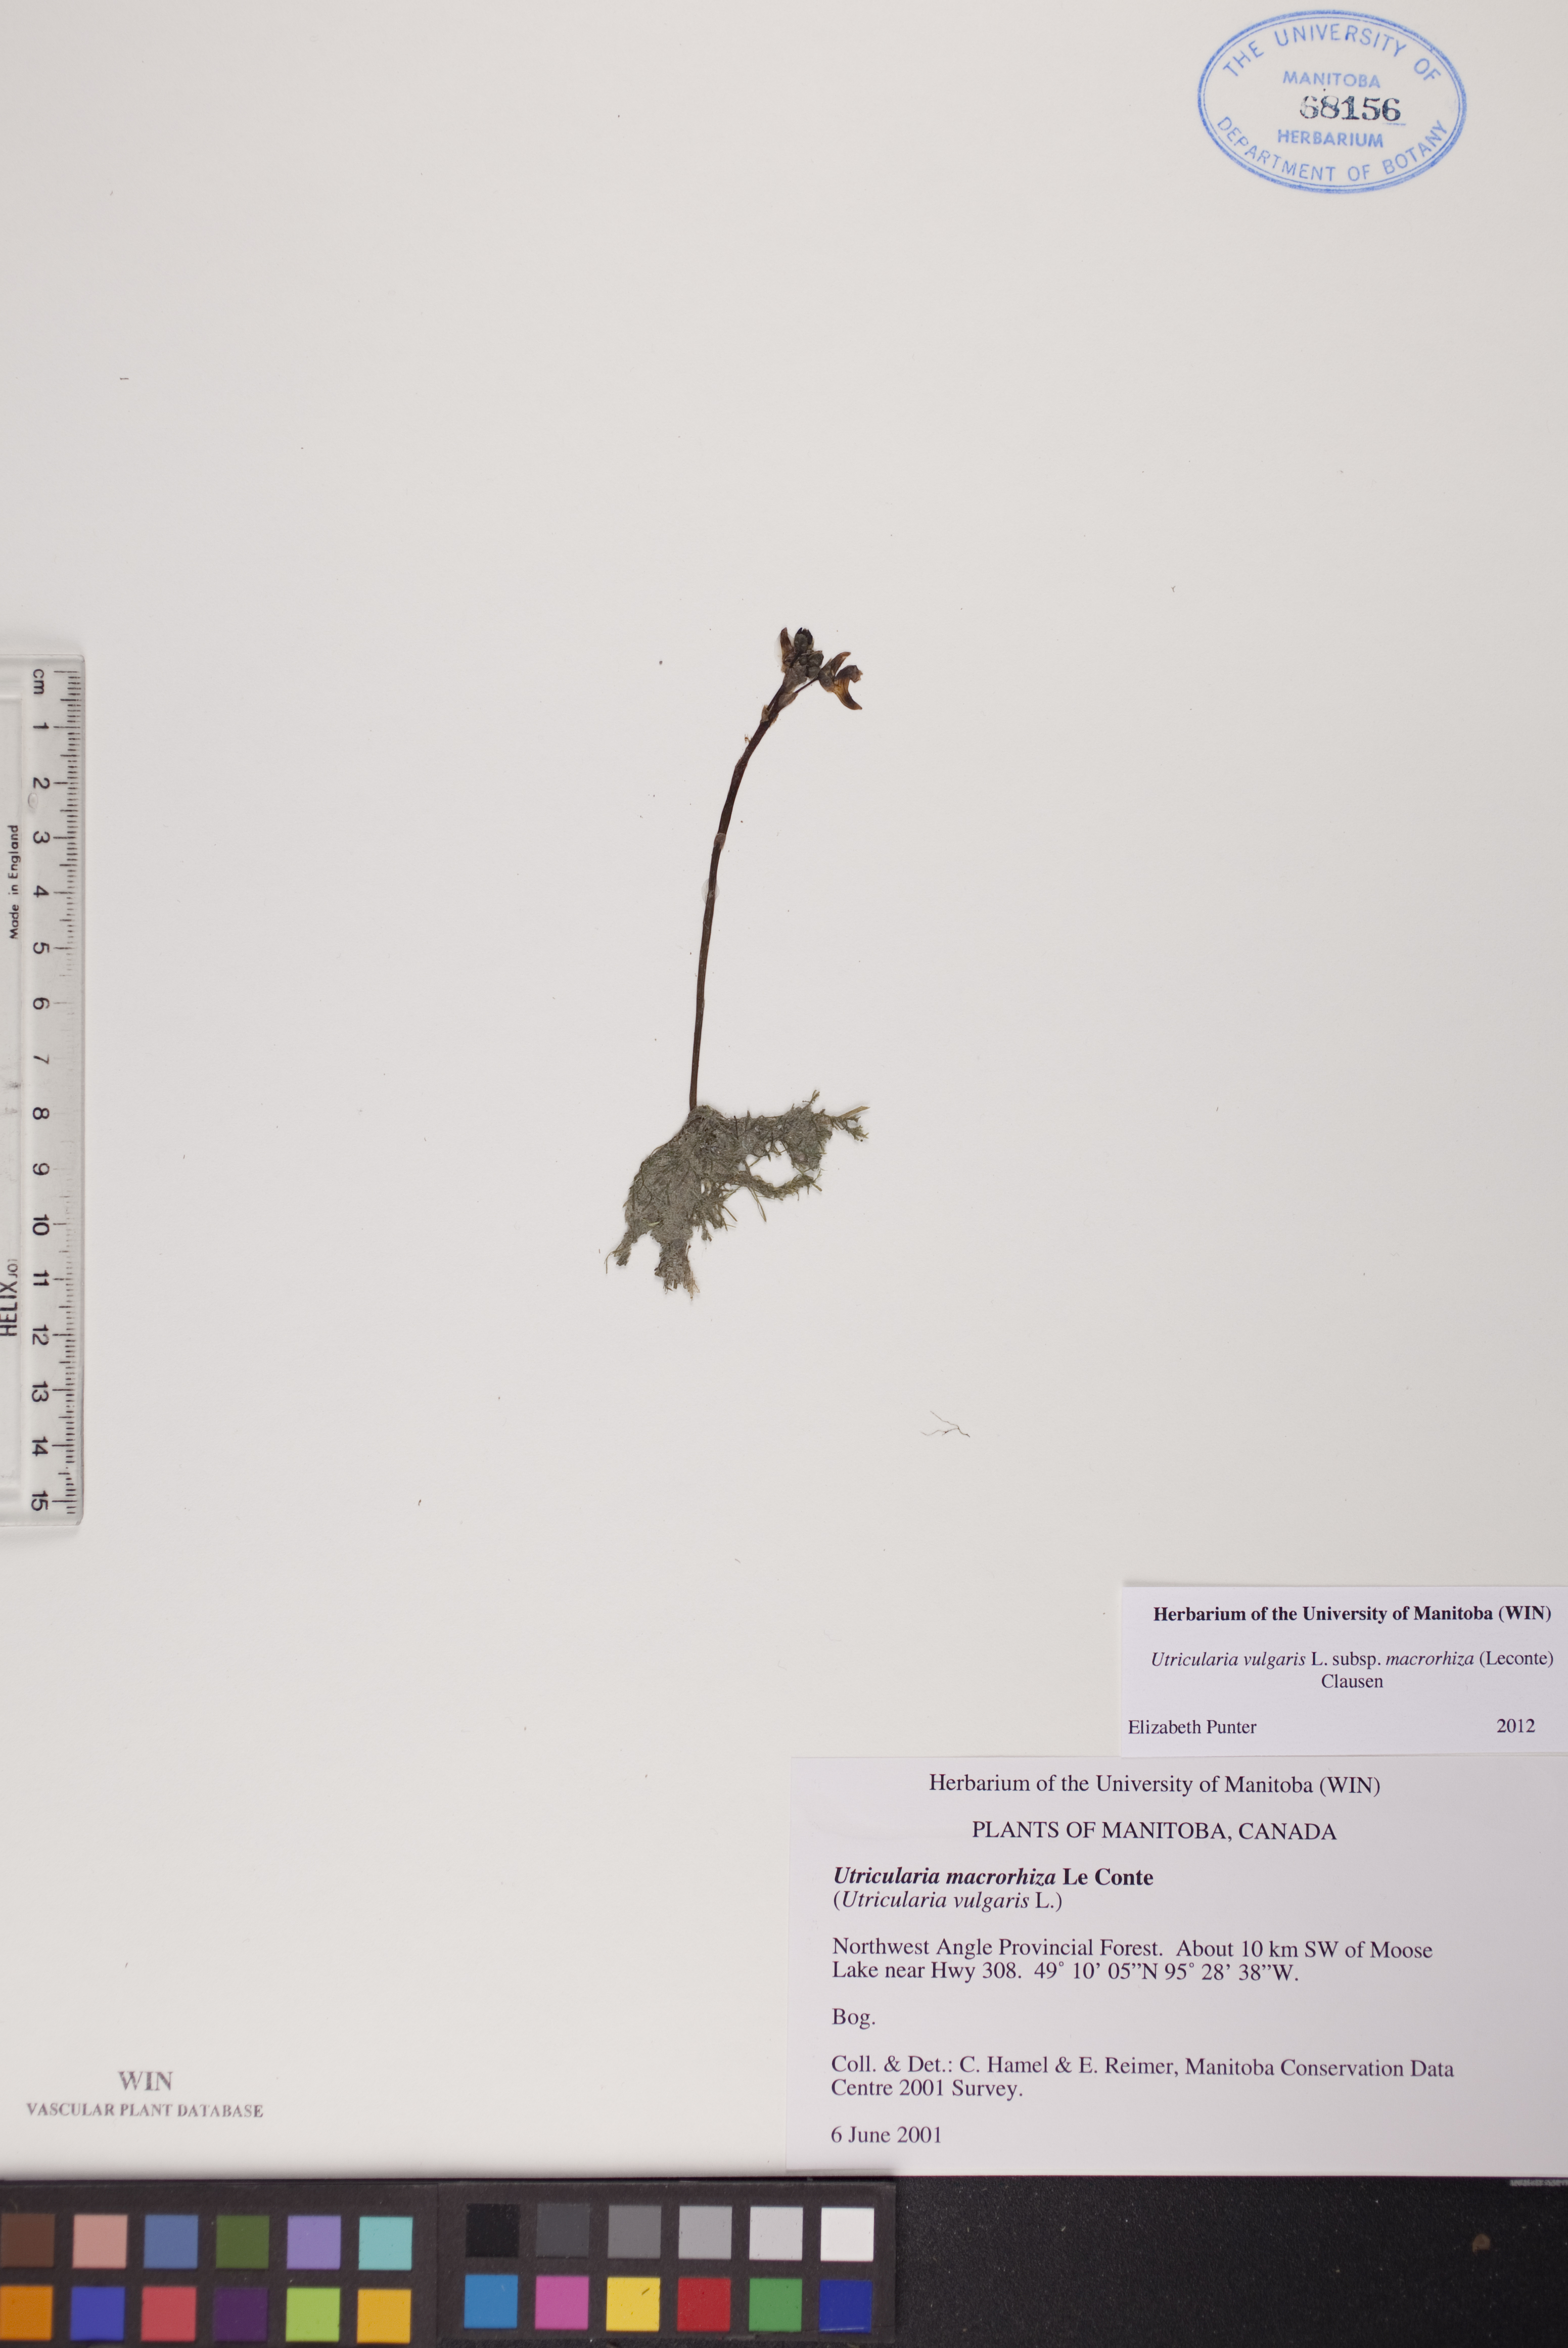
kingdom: Plantae
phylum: Tracheophyta
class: Magnoliopsida
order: Lamiales
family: Lentibulariaceae
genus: Utricularia
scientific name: Utricularia macrorhiza
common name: Common bladderwort
